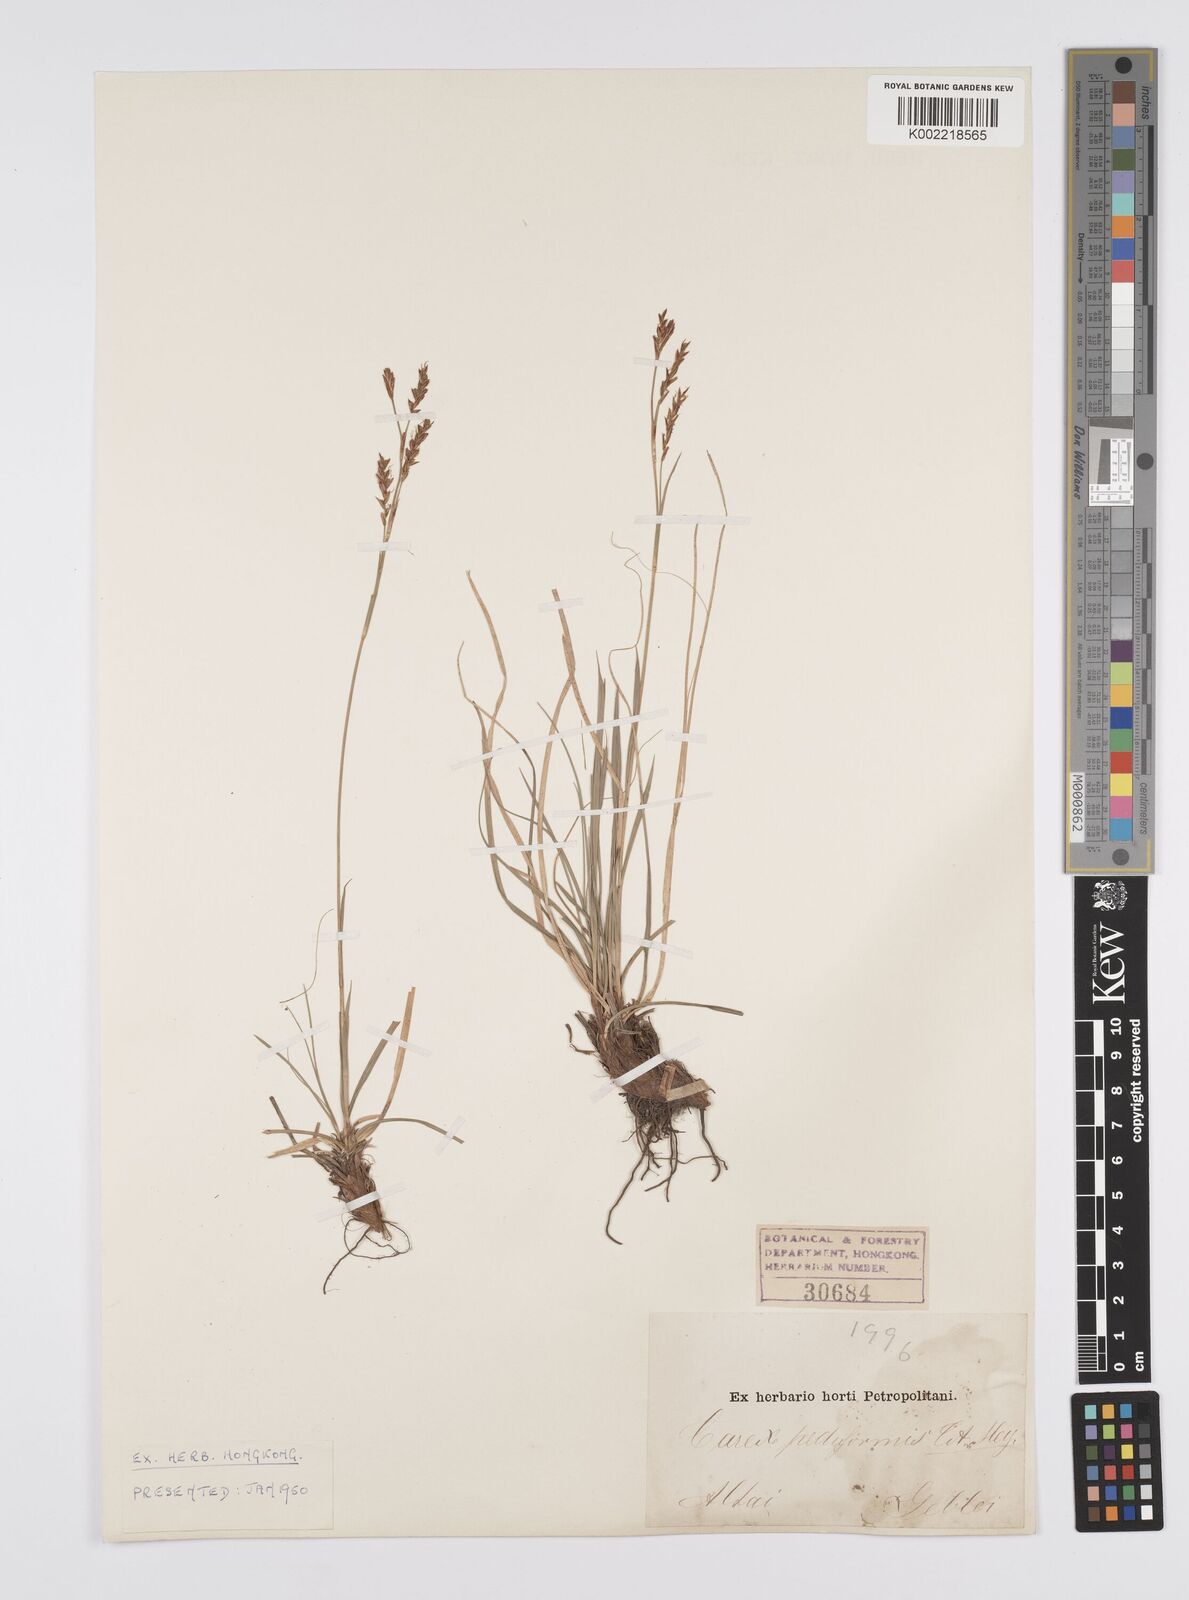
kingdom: Plantae
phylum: Tracheophyta
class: Liliopsida
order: Poales
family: Cyperaceae
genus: Carex
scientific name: Carex pediformis
